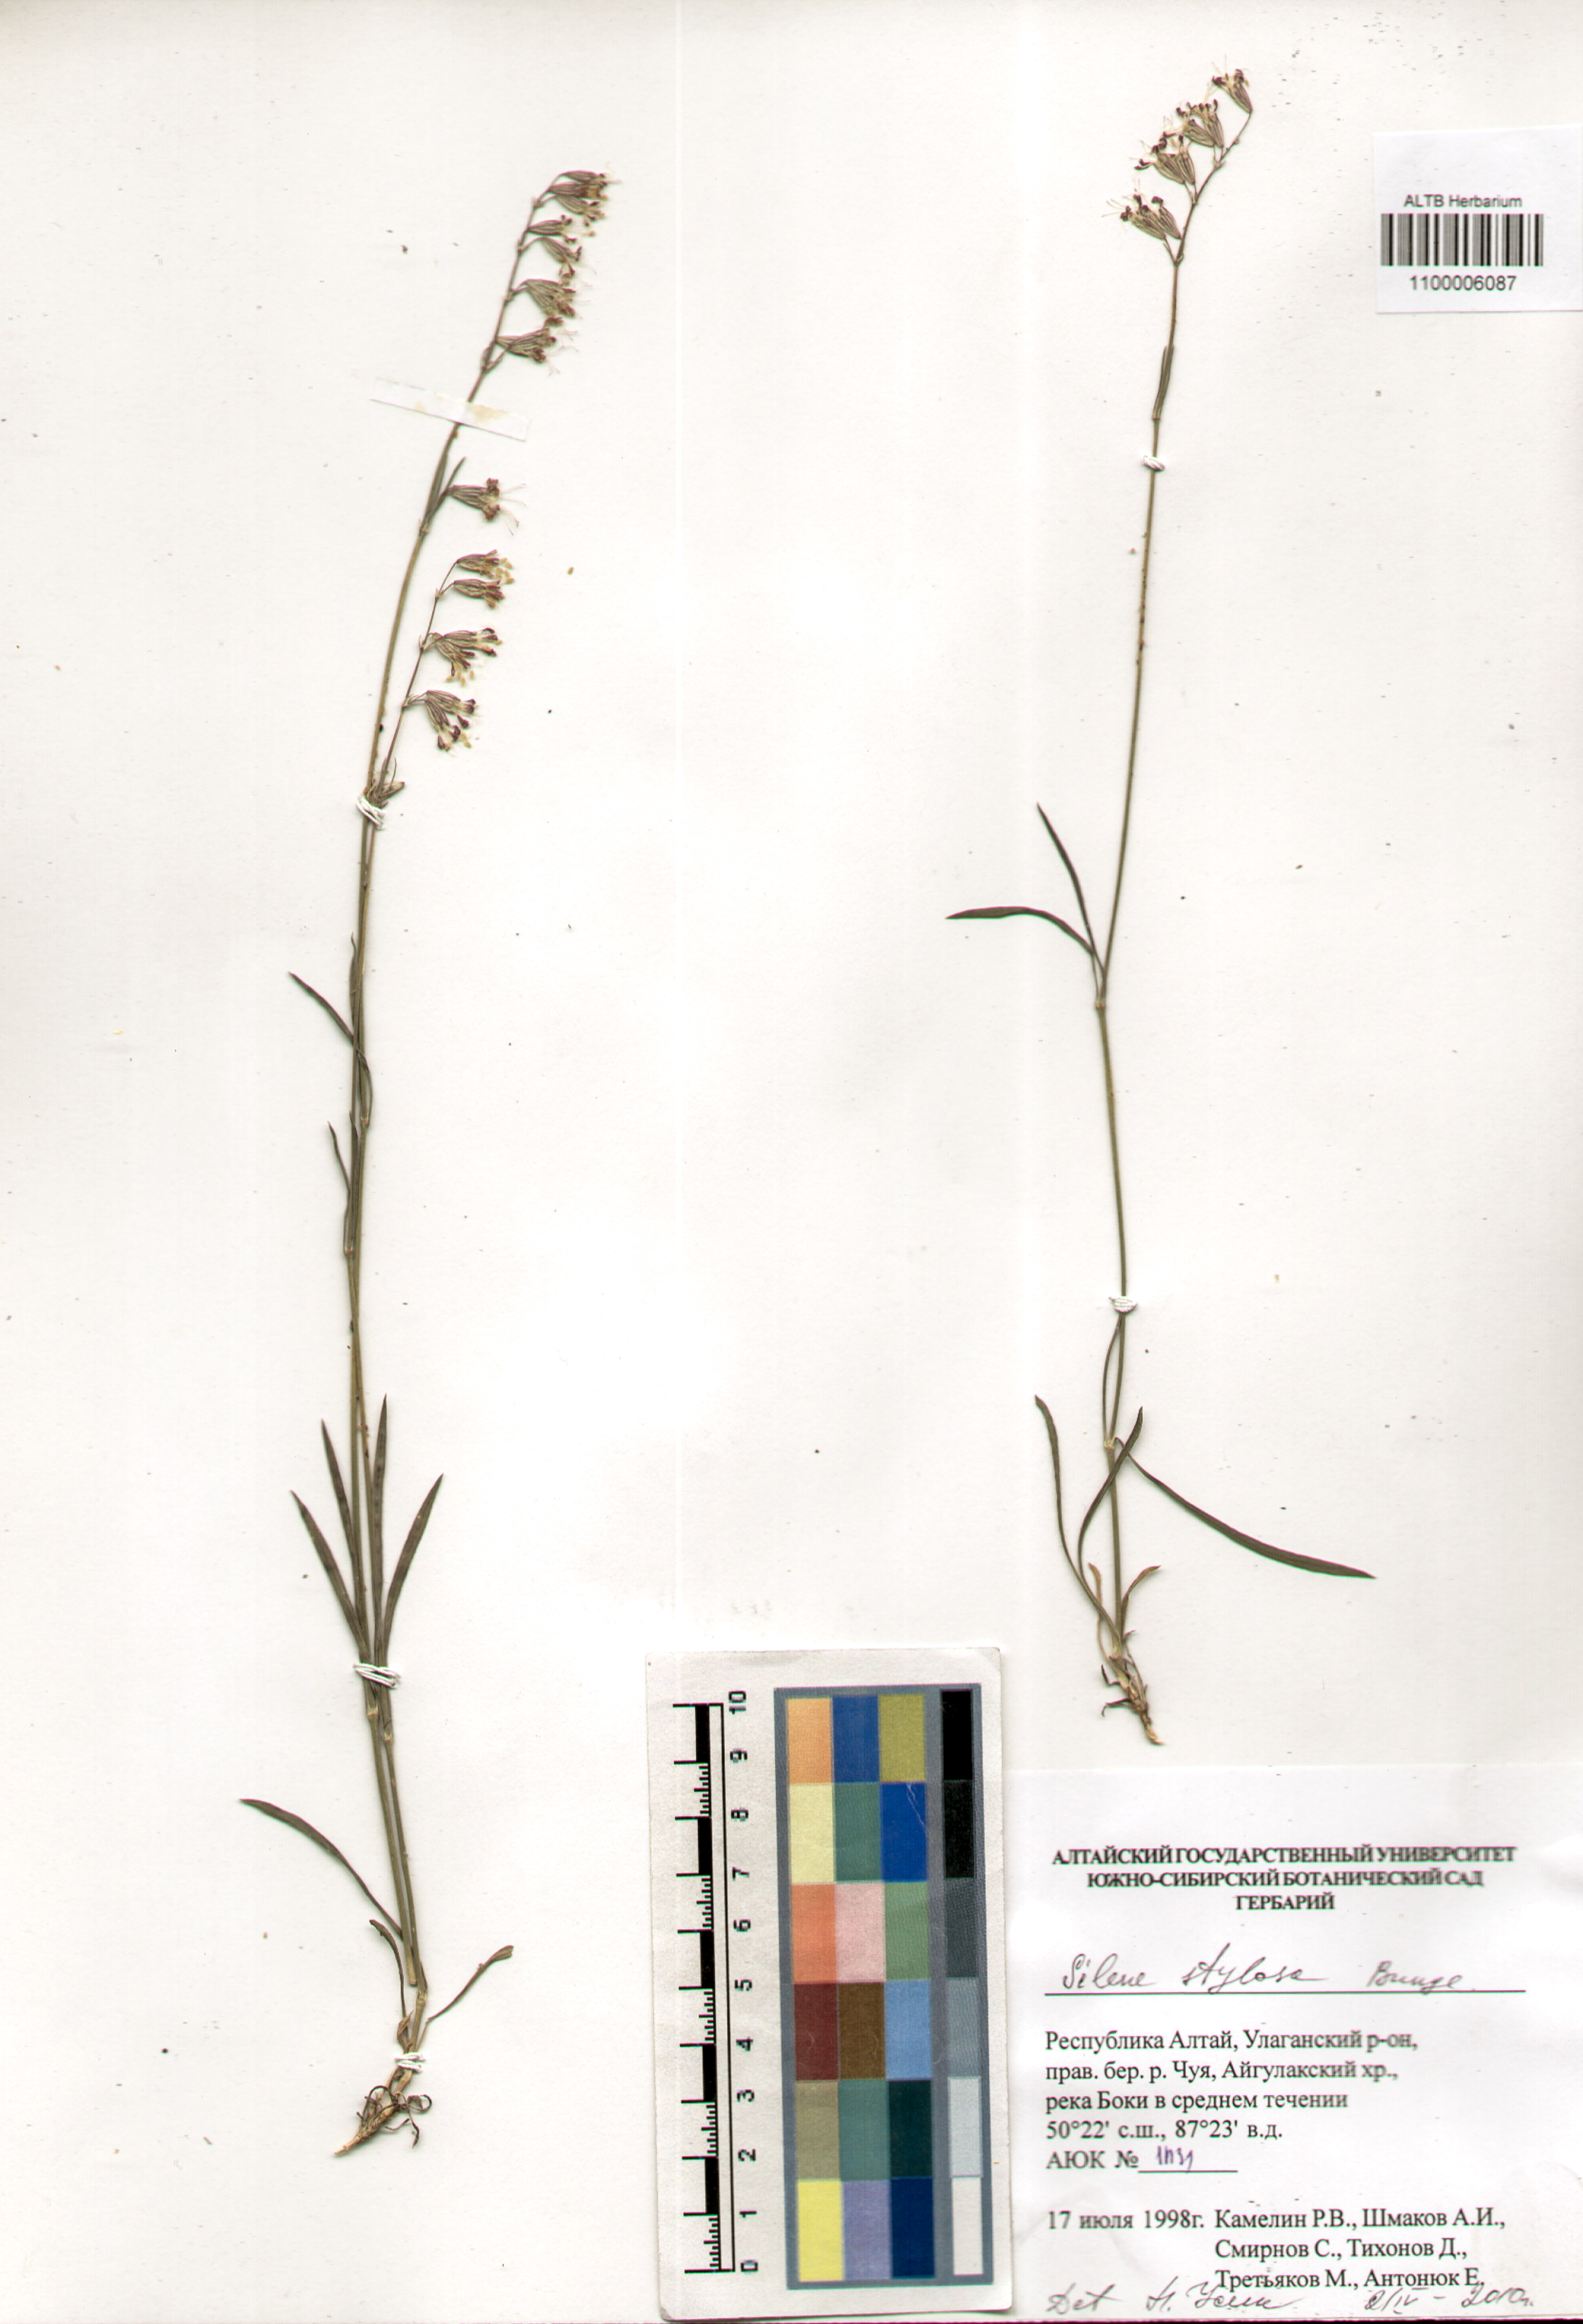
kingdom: Plantae
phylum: Tracheophyta
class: Magnoliopsida
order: Caryophyllales
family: Caryophyllaceae
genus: Silene
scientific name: Silene graminifolia
